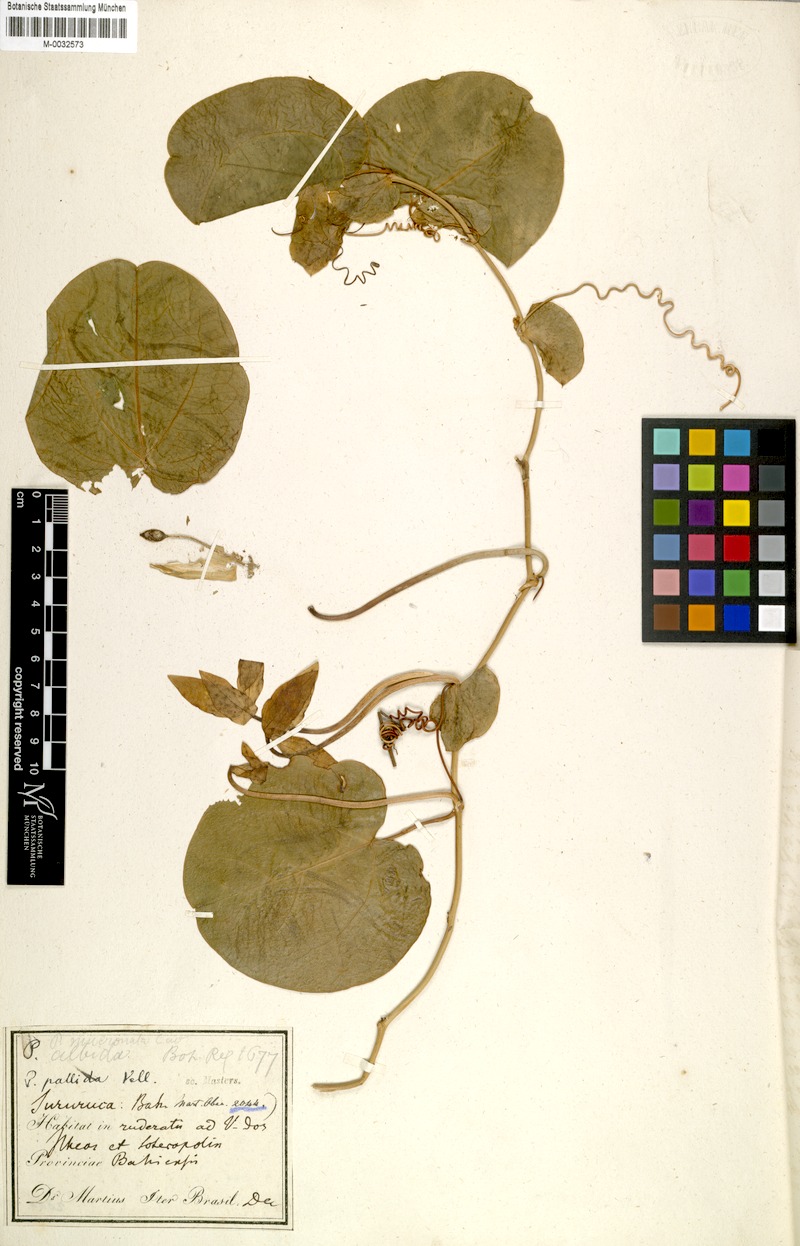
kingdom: Plantae
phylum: Tracheophyta
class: Magnoliopsida
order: Malpighiales
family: Passifloraceae
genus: Passiflora
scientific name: Passiflora mucronata
